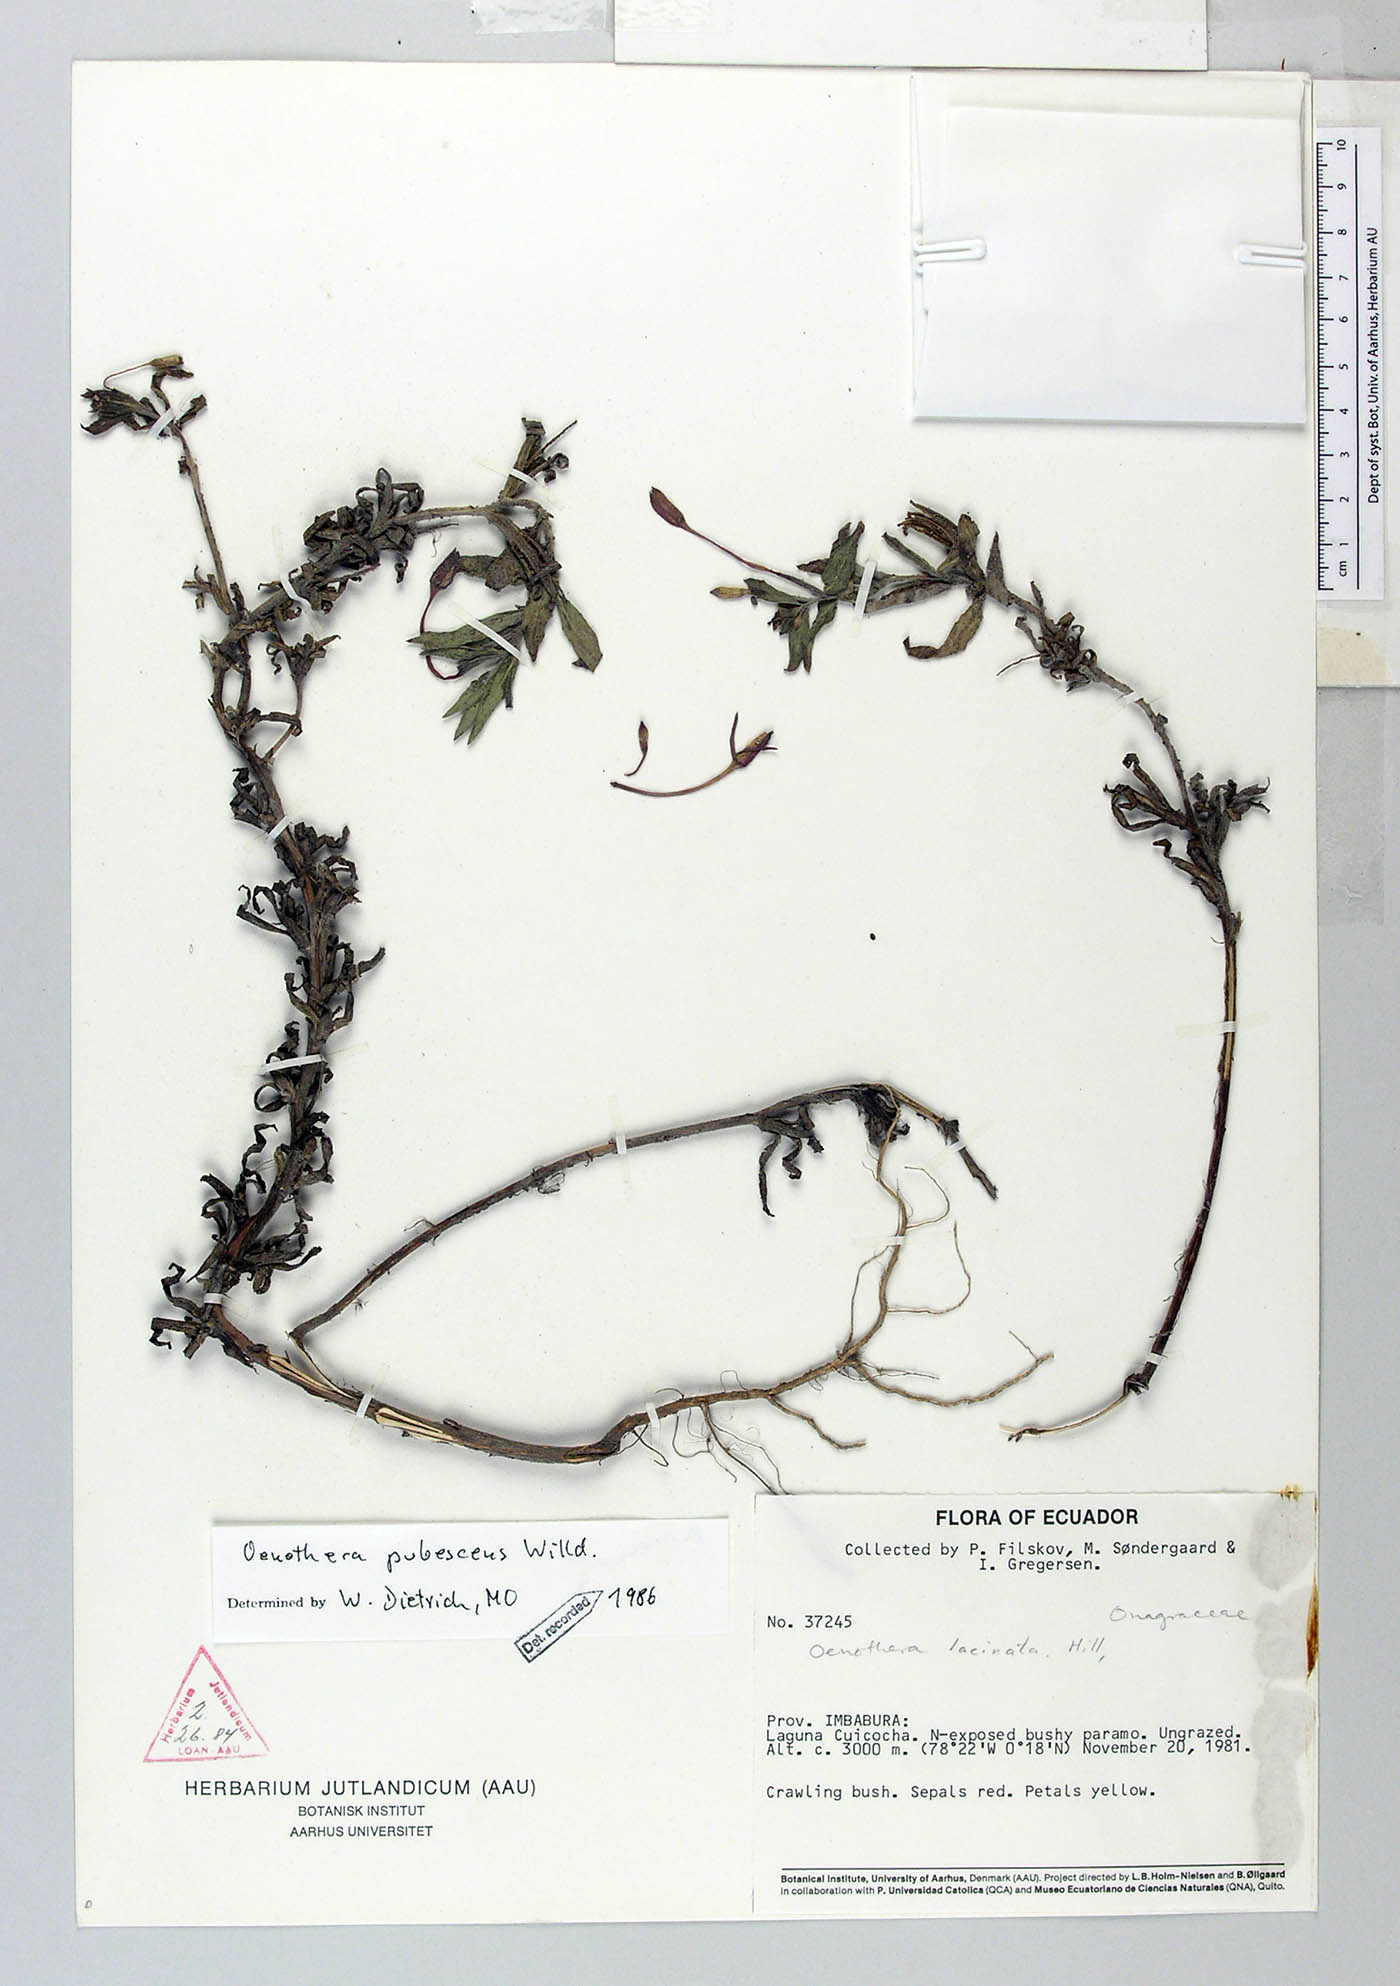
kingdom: Plantae
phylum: Tracheophyta
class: Magnoliopsida
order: Myrtales
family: Onagraceae
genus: Oenothera
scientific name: Oenothera pubescens
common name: South american evening-primrose
